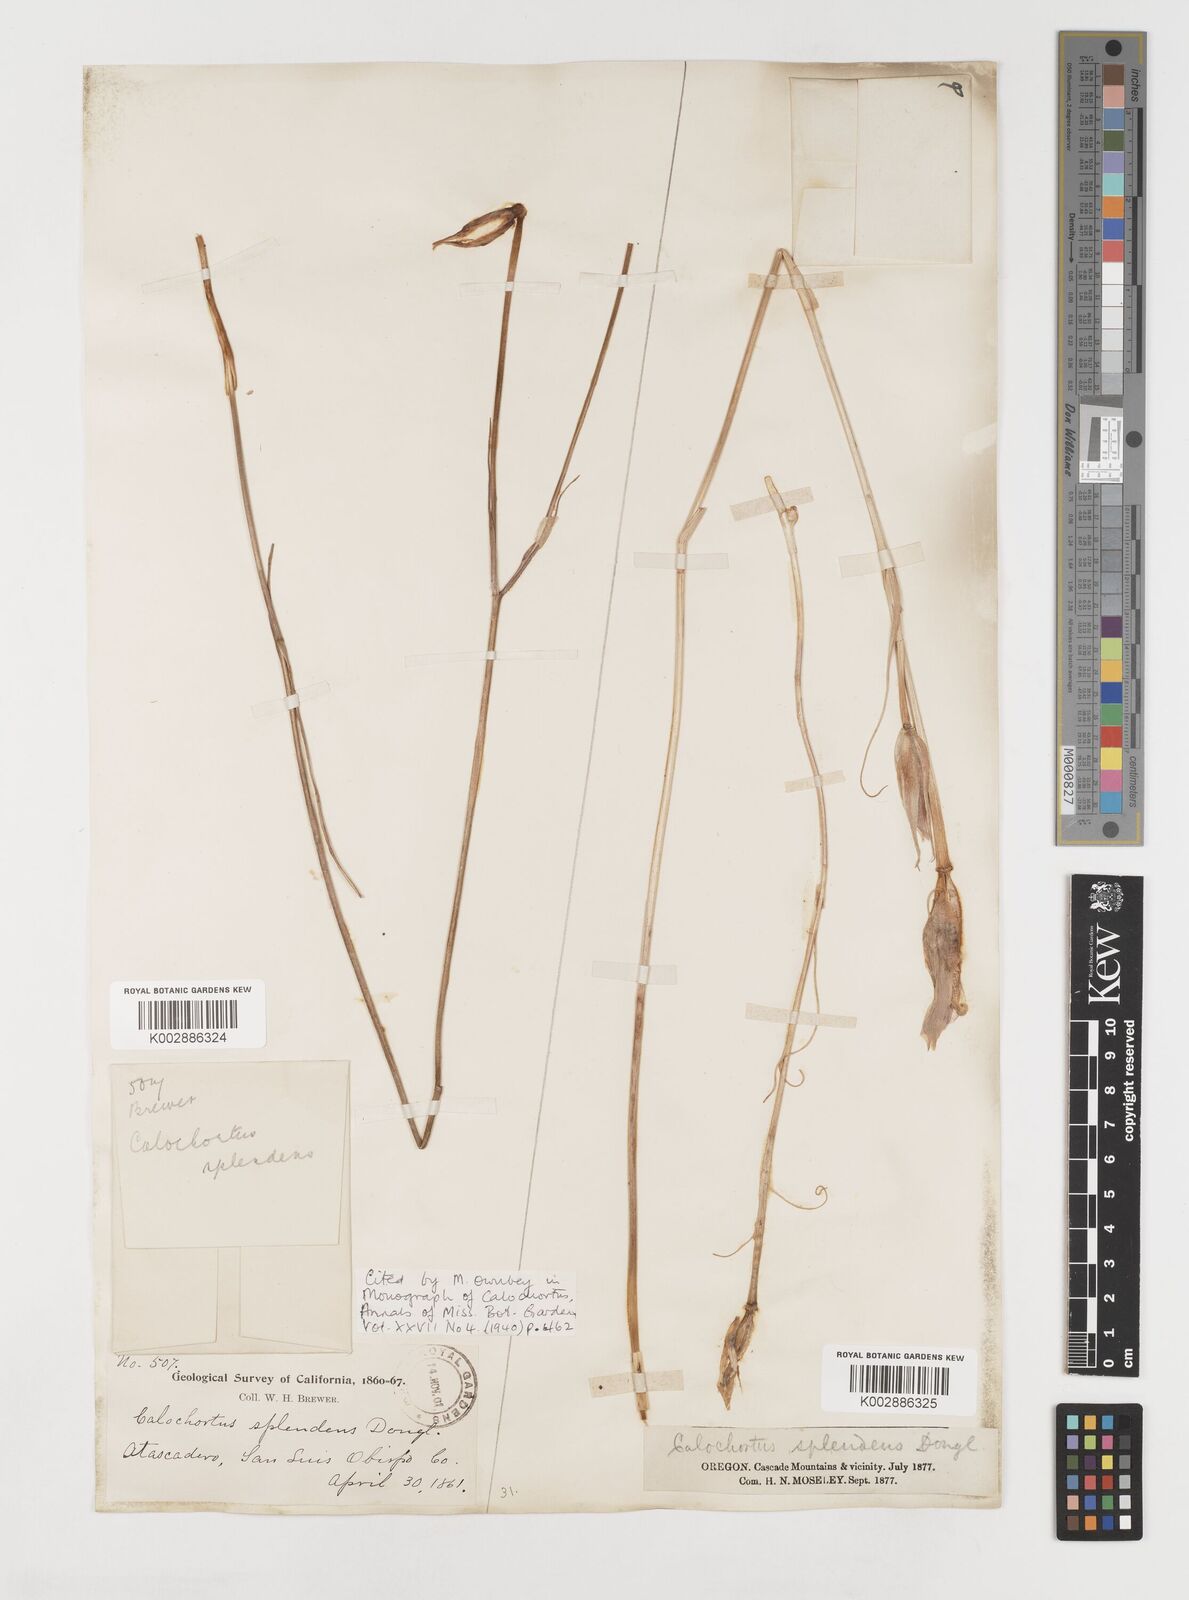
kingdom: Plantae
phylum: Tracheophyta
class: Liliopsida
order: Liliales
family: Liliaceae
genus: Calochortus
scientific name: Calochortus splendens
